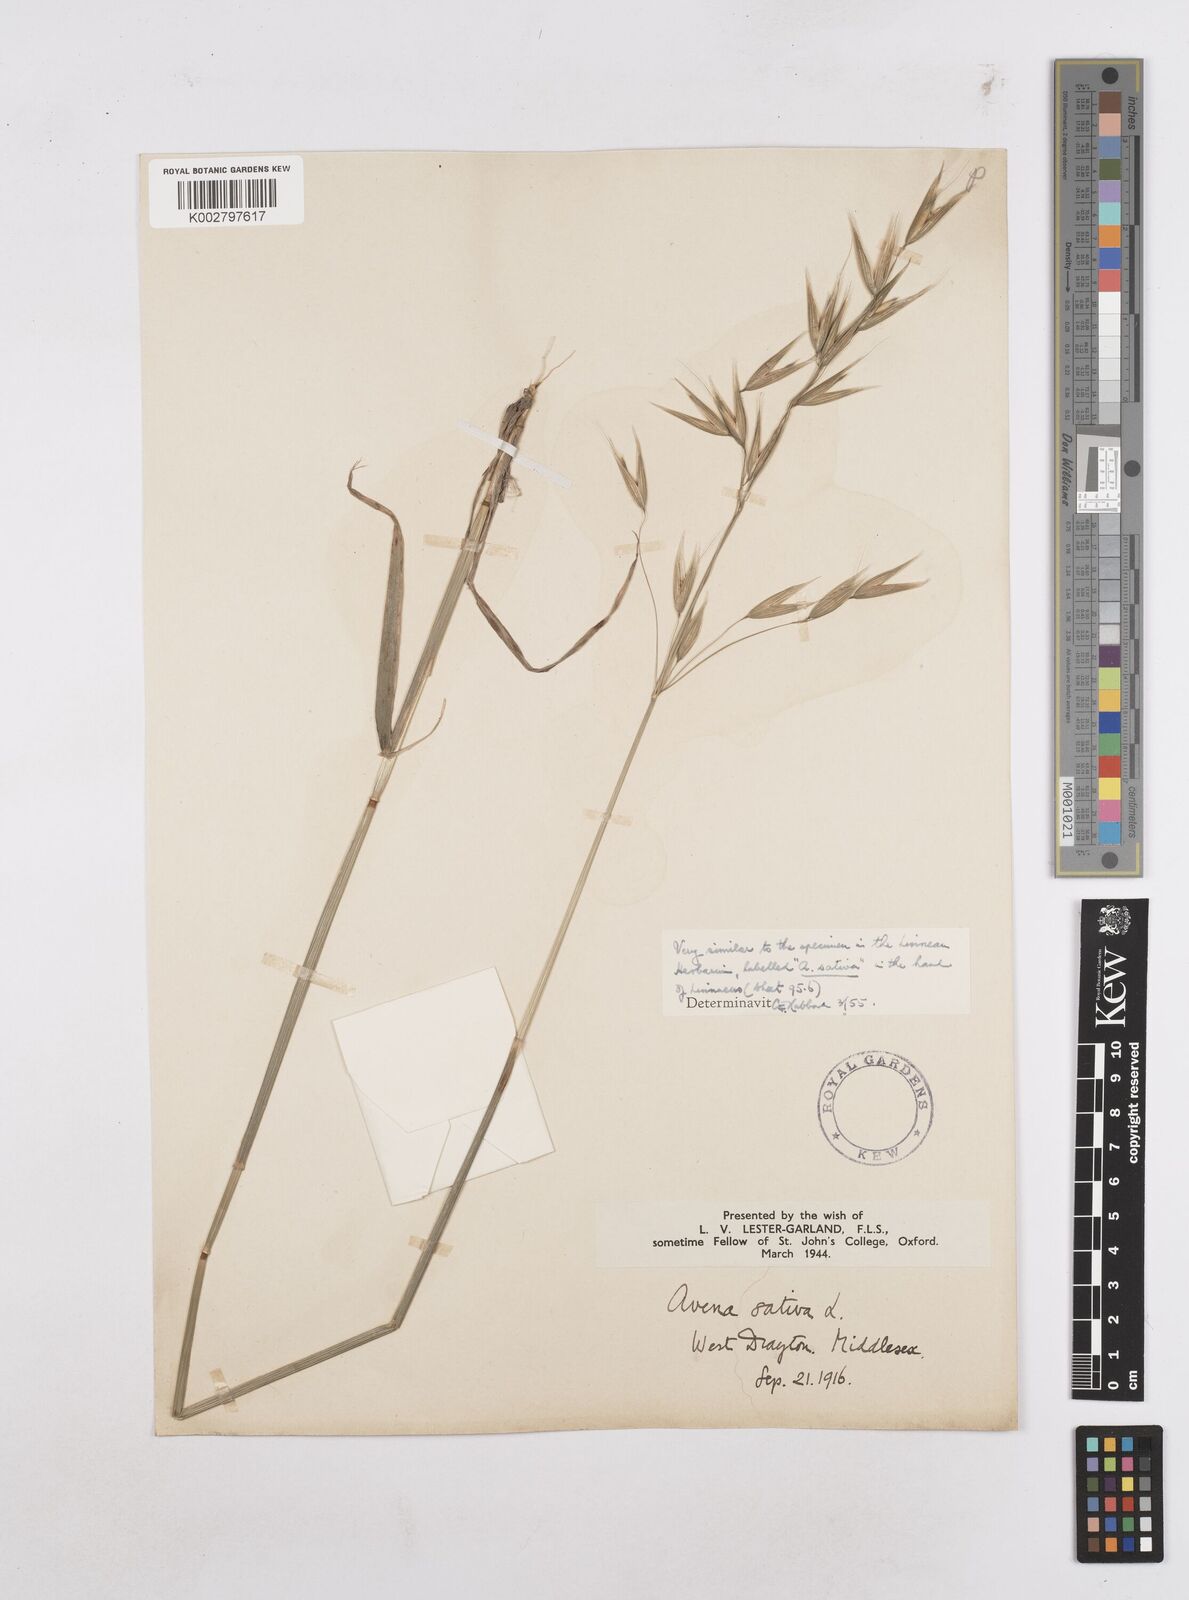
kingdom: Plantae
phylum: Tracheophyta
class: Liliopsida
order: Poales
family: Poaceae
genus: Avena
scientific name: Avena sativa
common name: Oat
